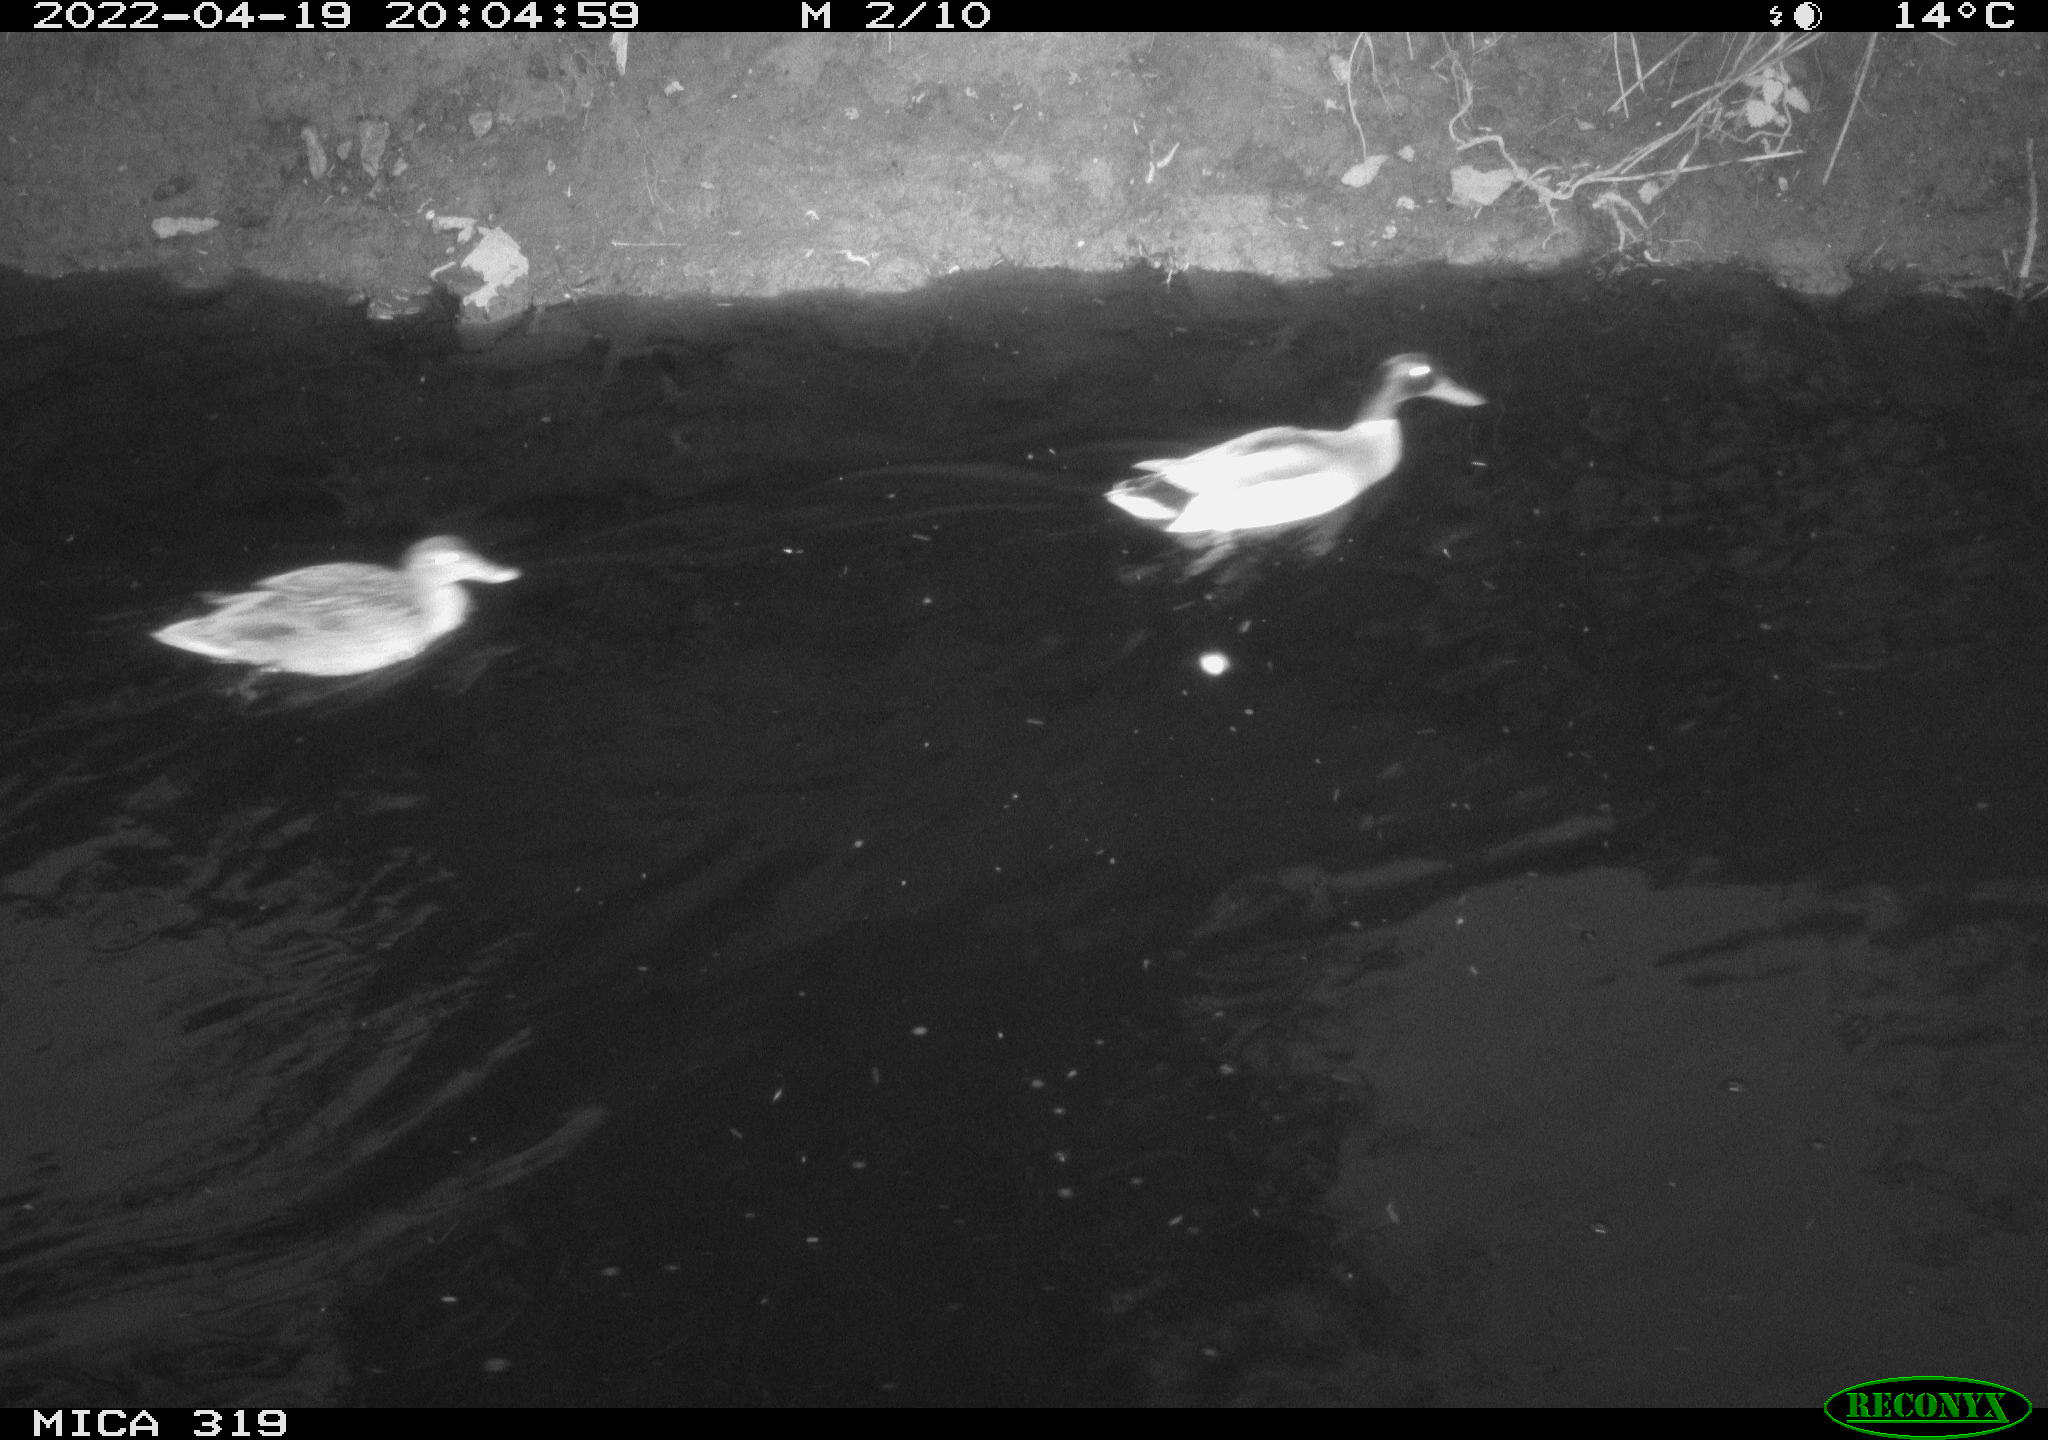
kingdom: Animalia
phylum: Chordata
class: Aves
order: Anseriformes
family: Anatidae
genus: Anas
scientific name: Anas platyrhynchos
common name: Mallard
